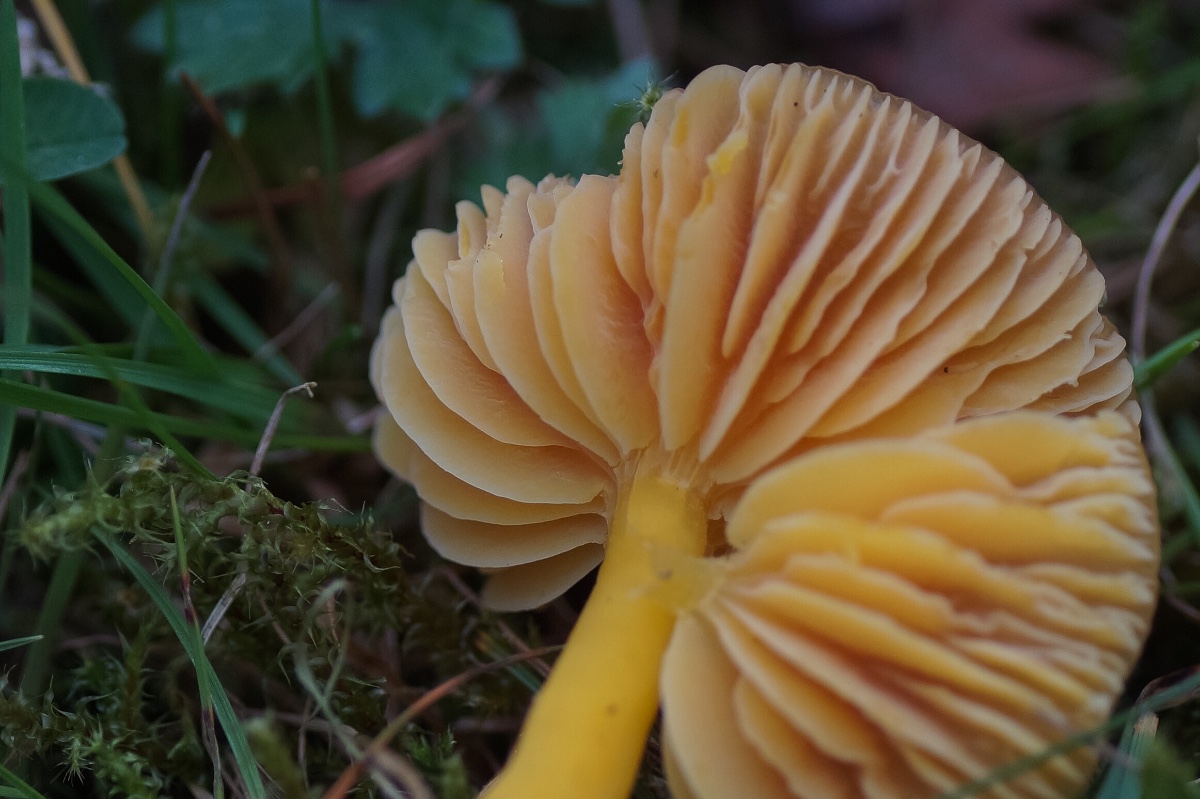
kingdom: Fungi
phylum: Basidiomycota
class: Agaricomycetes
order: Agaricales
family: Hygrophoraceae
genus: Hygrocybe
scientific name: Hygrocybe ceracea
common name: voksgul vokshat
